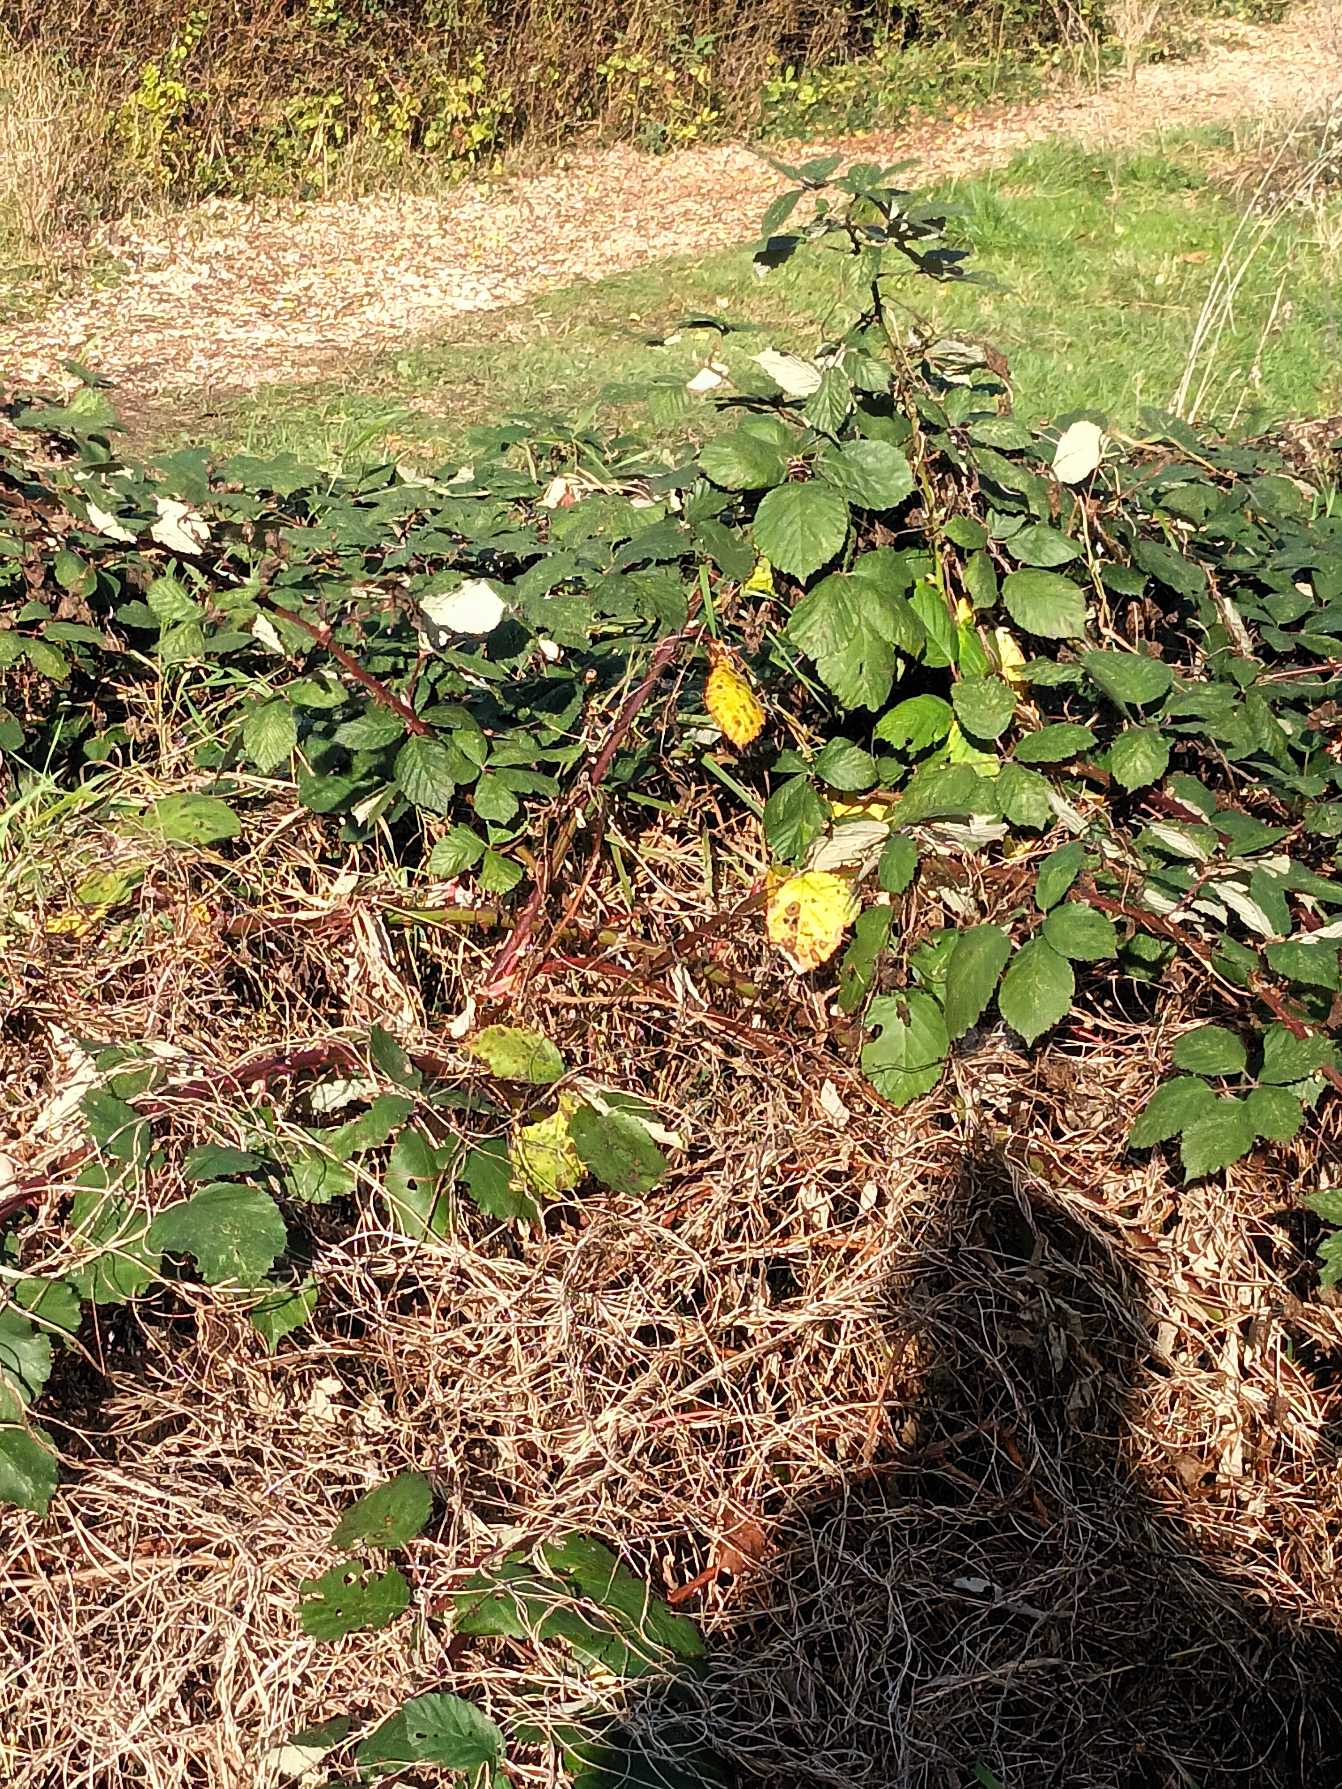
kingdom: Plantae
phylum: Tracheophyta
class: Magnoliopsida
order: Rosales
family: Rosaceae
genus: Rubus
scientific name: Rubus armeniacus
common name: Armensk brombær
